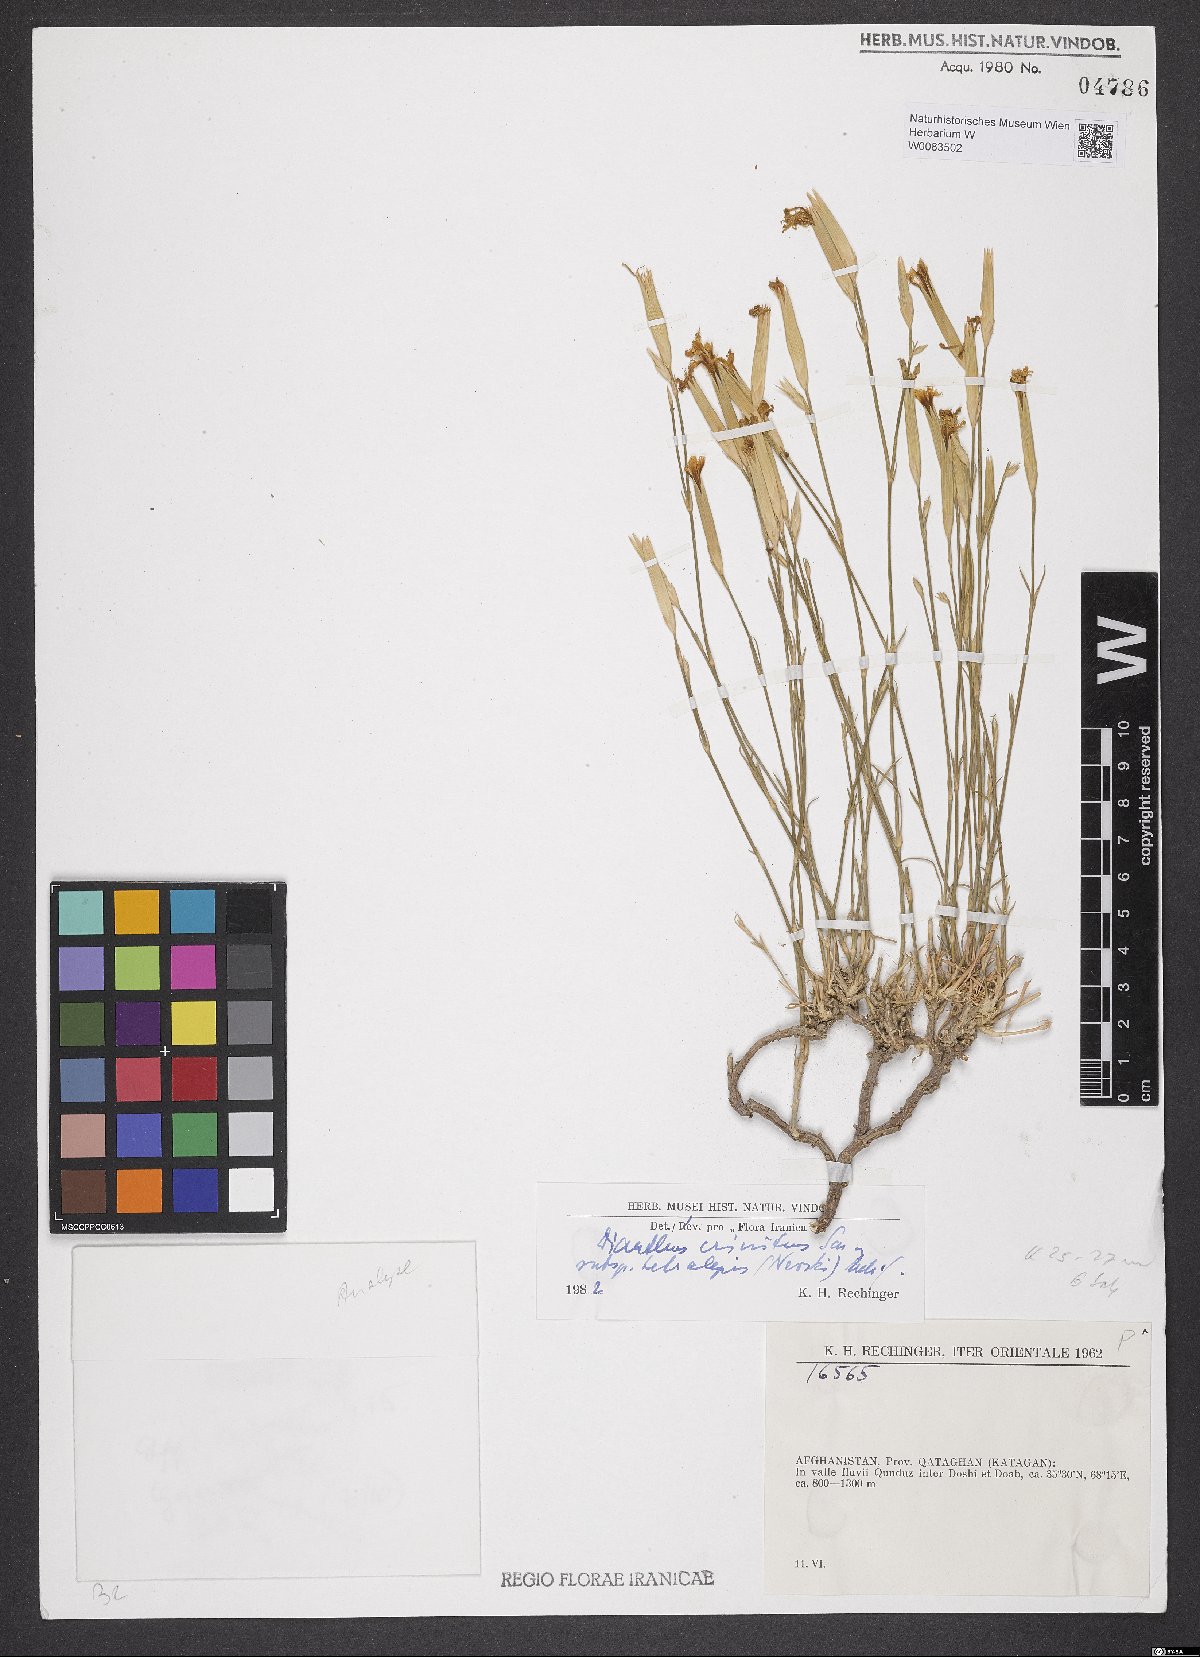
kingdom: Plantae
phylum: Tracheophyta
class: Magnoliopsida
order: Caryophyllales
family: Caryophyllaceae
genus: Dianthus
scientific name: Dianthus crinitus
